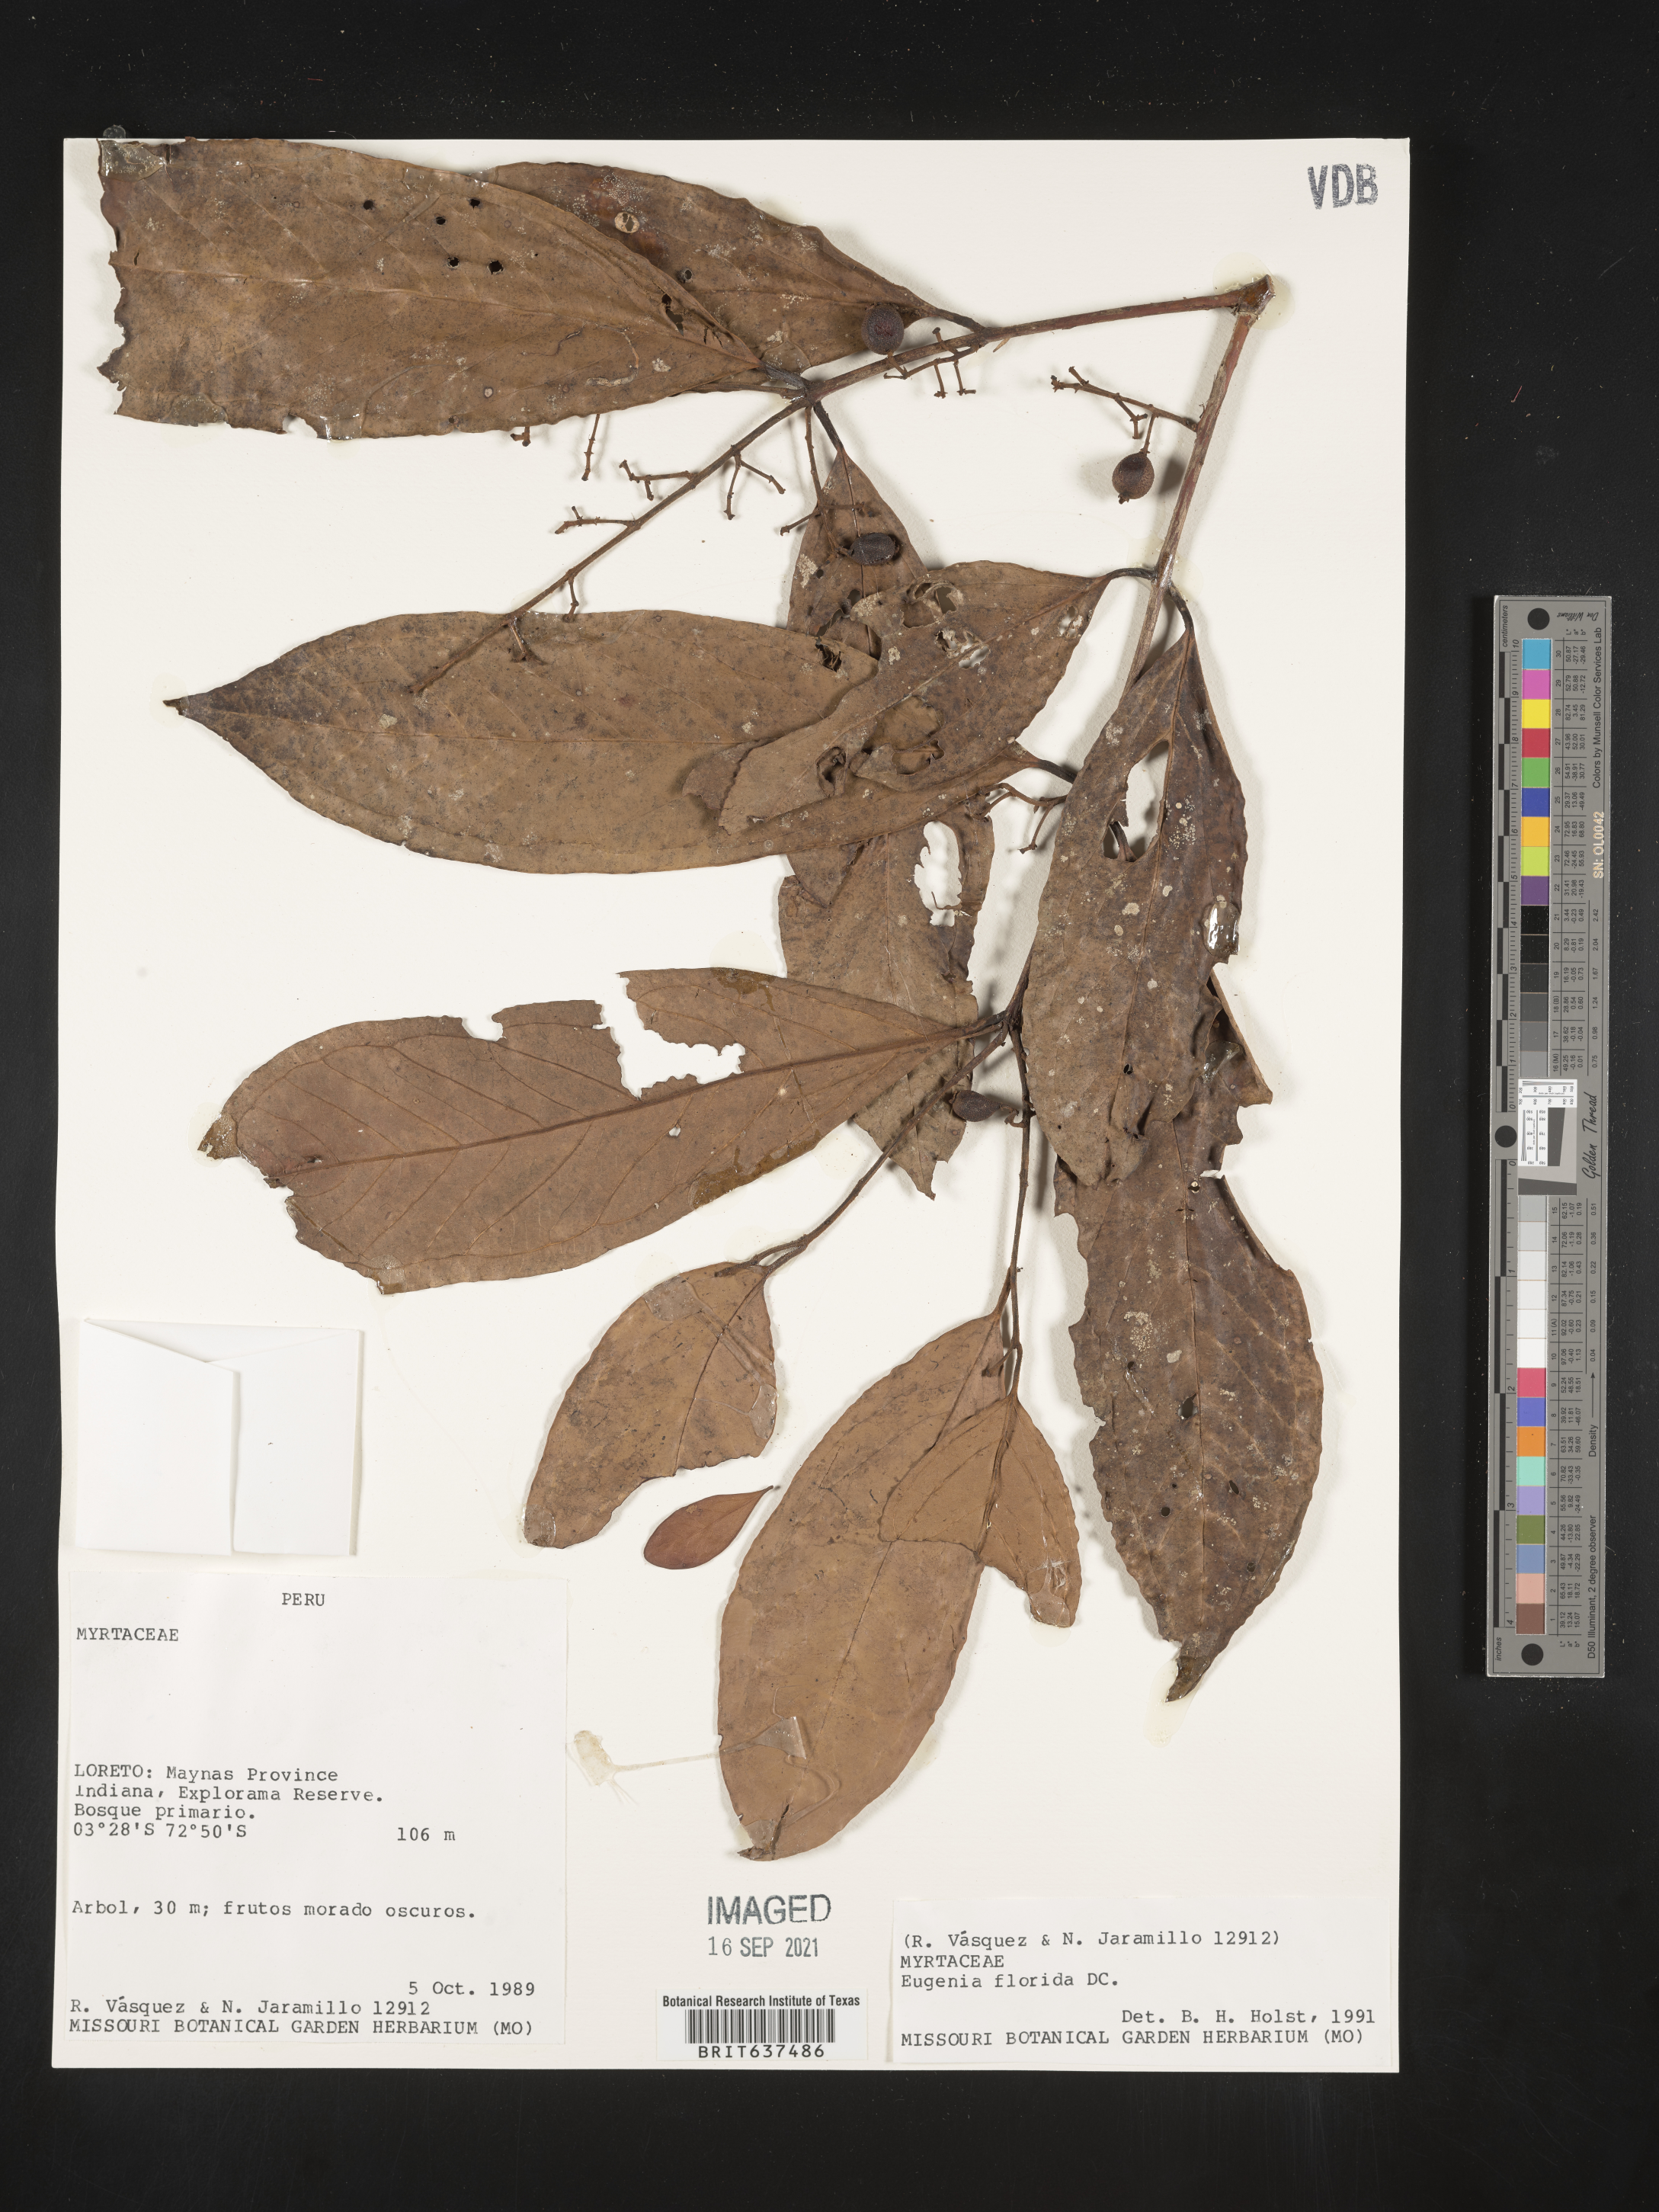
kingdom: Plantae
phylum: Tracheophyta
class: Magnoliopsida
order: Myrtales
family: Myrtaceae
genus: Eugenia
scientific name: Eugenia
